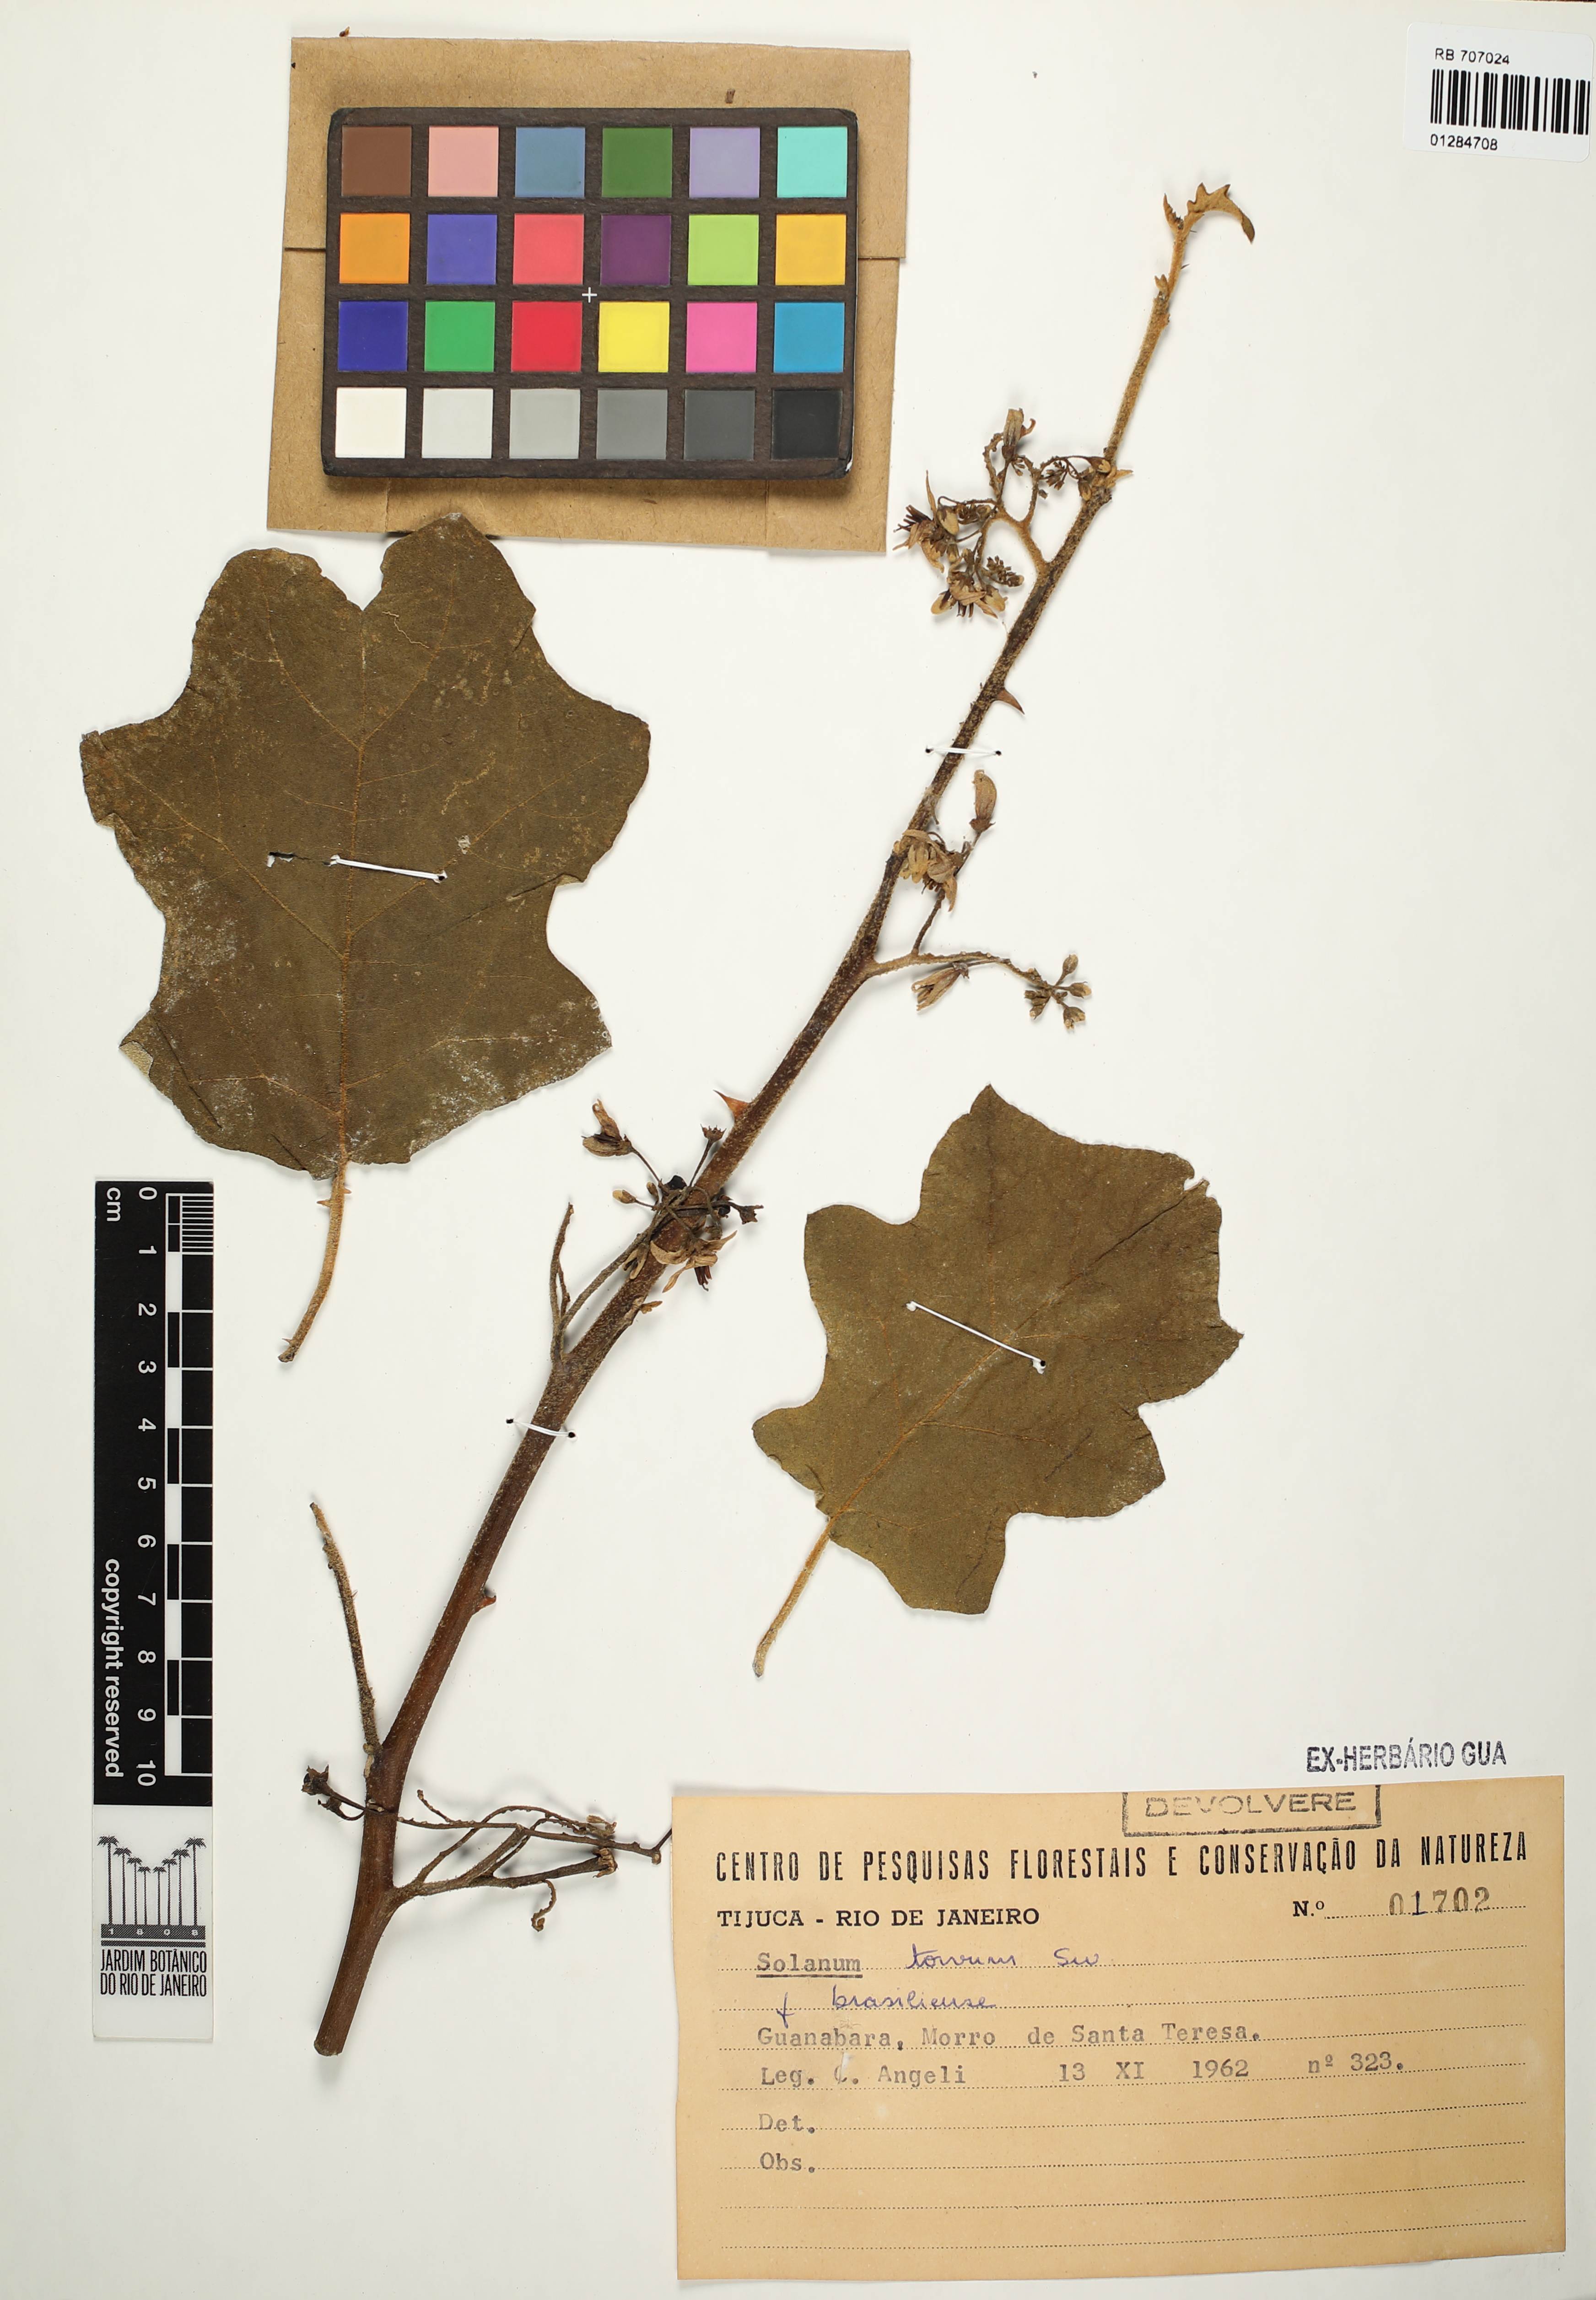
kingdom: Plantae
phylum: Tracheophyta
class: Magnoliopsida
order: Solanales
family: Solanaceae
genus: Solanum
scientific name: Solanum scuticum
